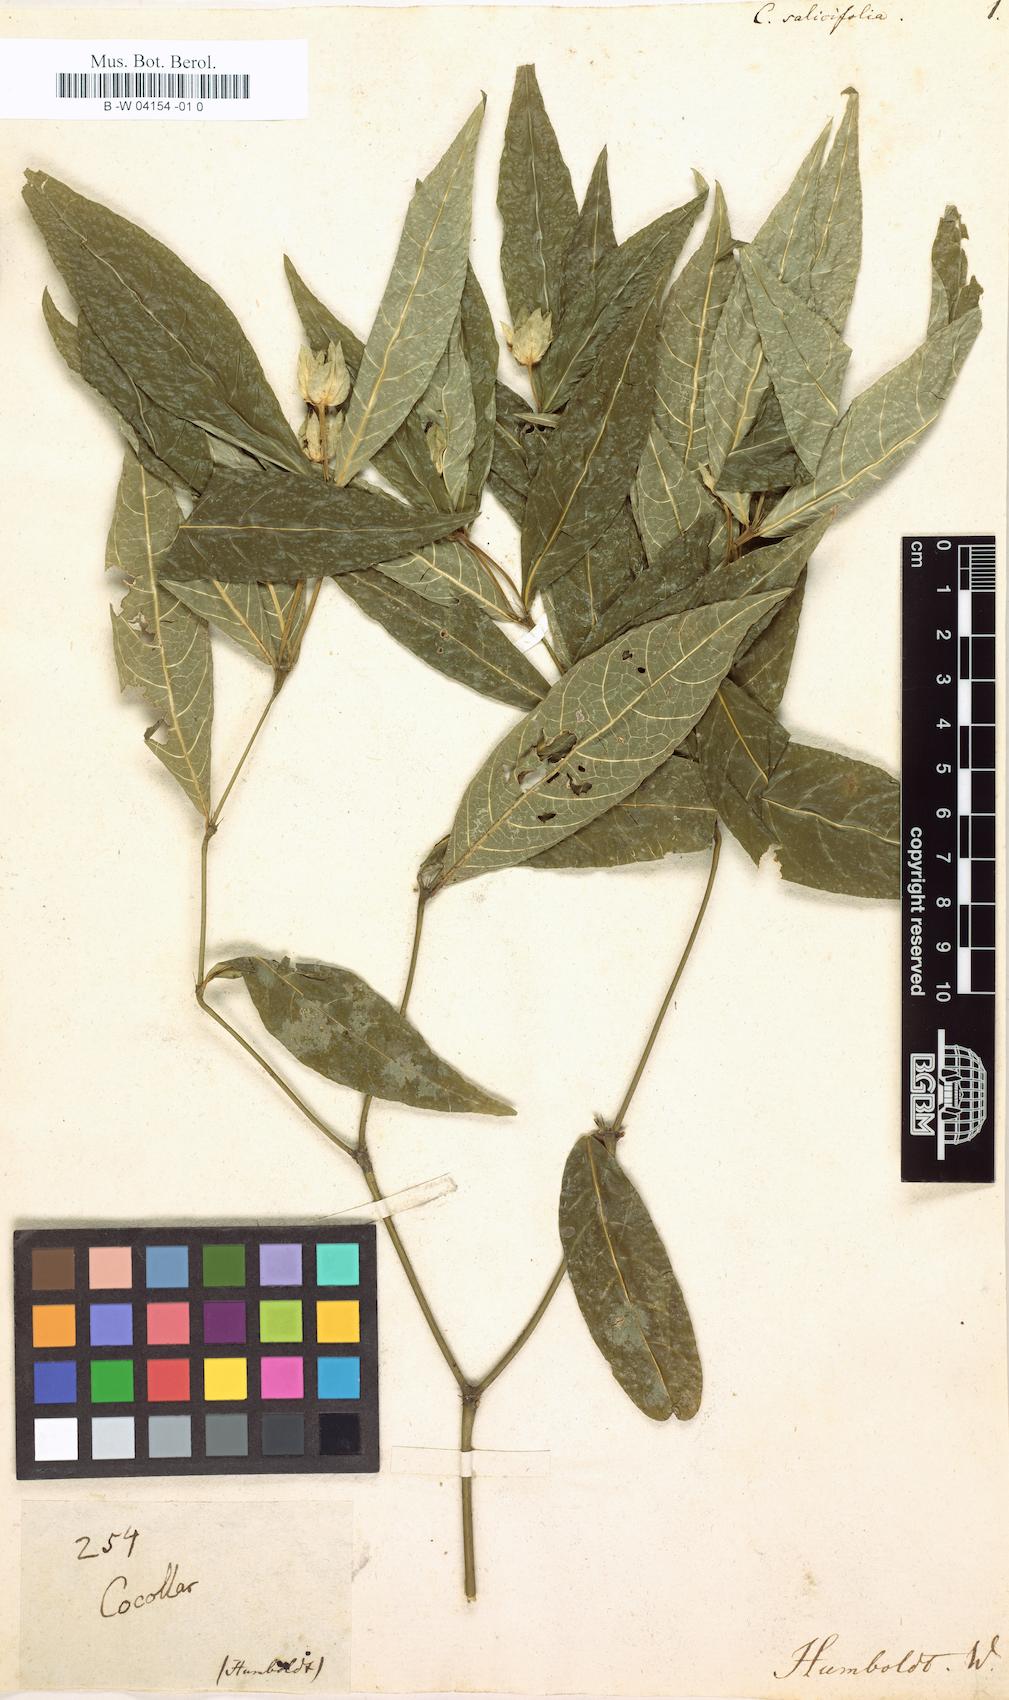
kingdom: Plantae
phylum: Tracheophyta
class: Magnoliopsida
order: Gentianales
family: Rubiaceae
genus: Palicourea
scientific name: Palicourea ostreophora
